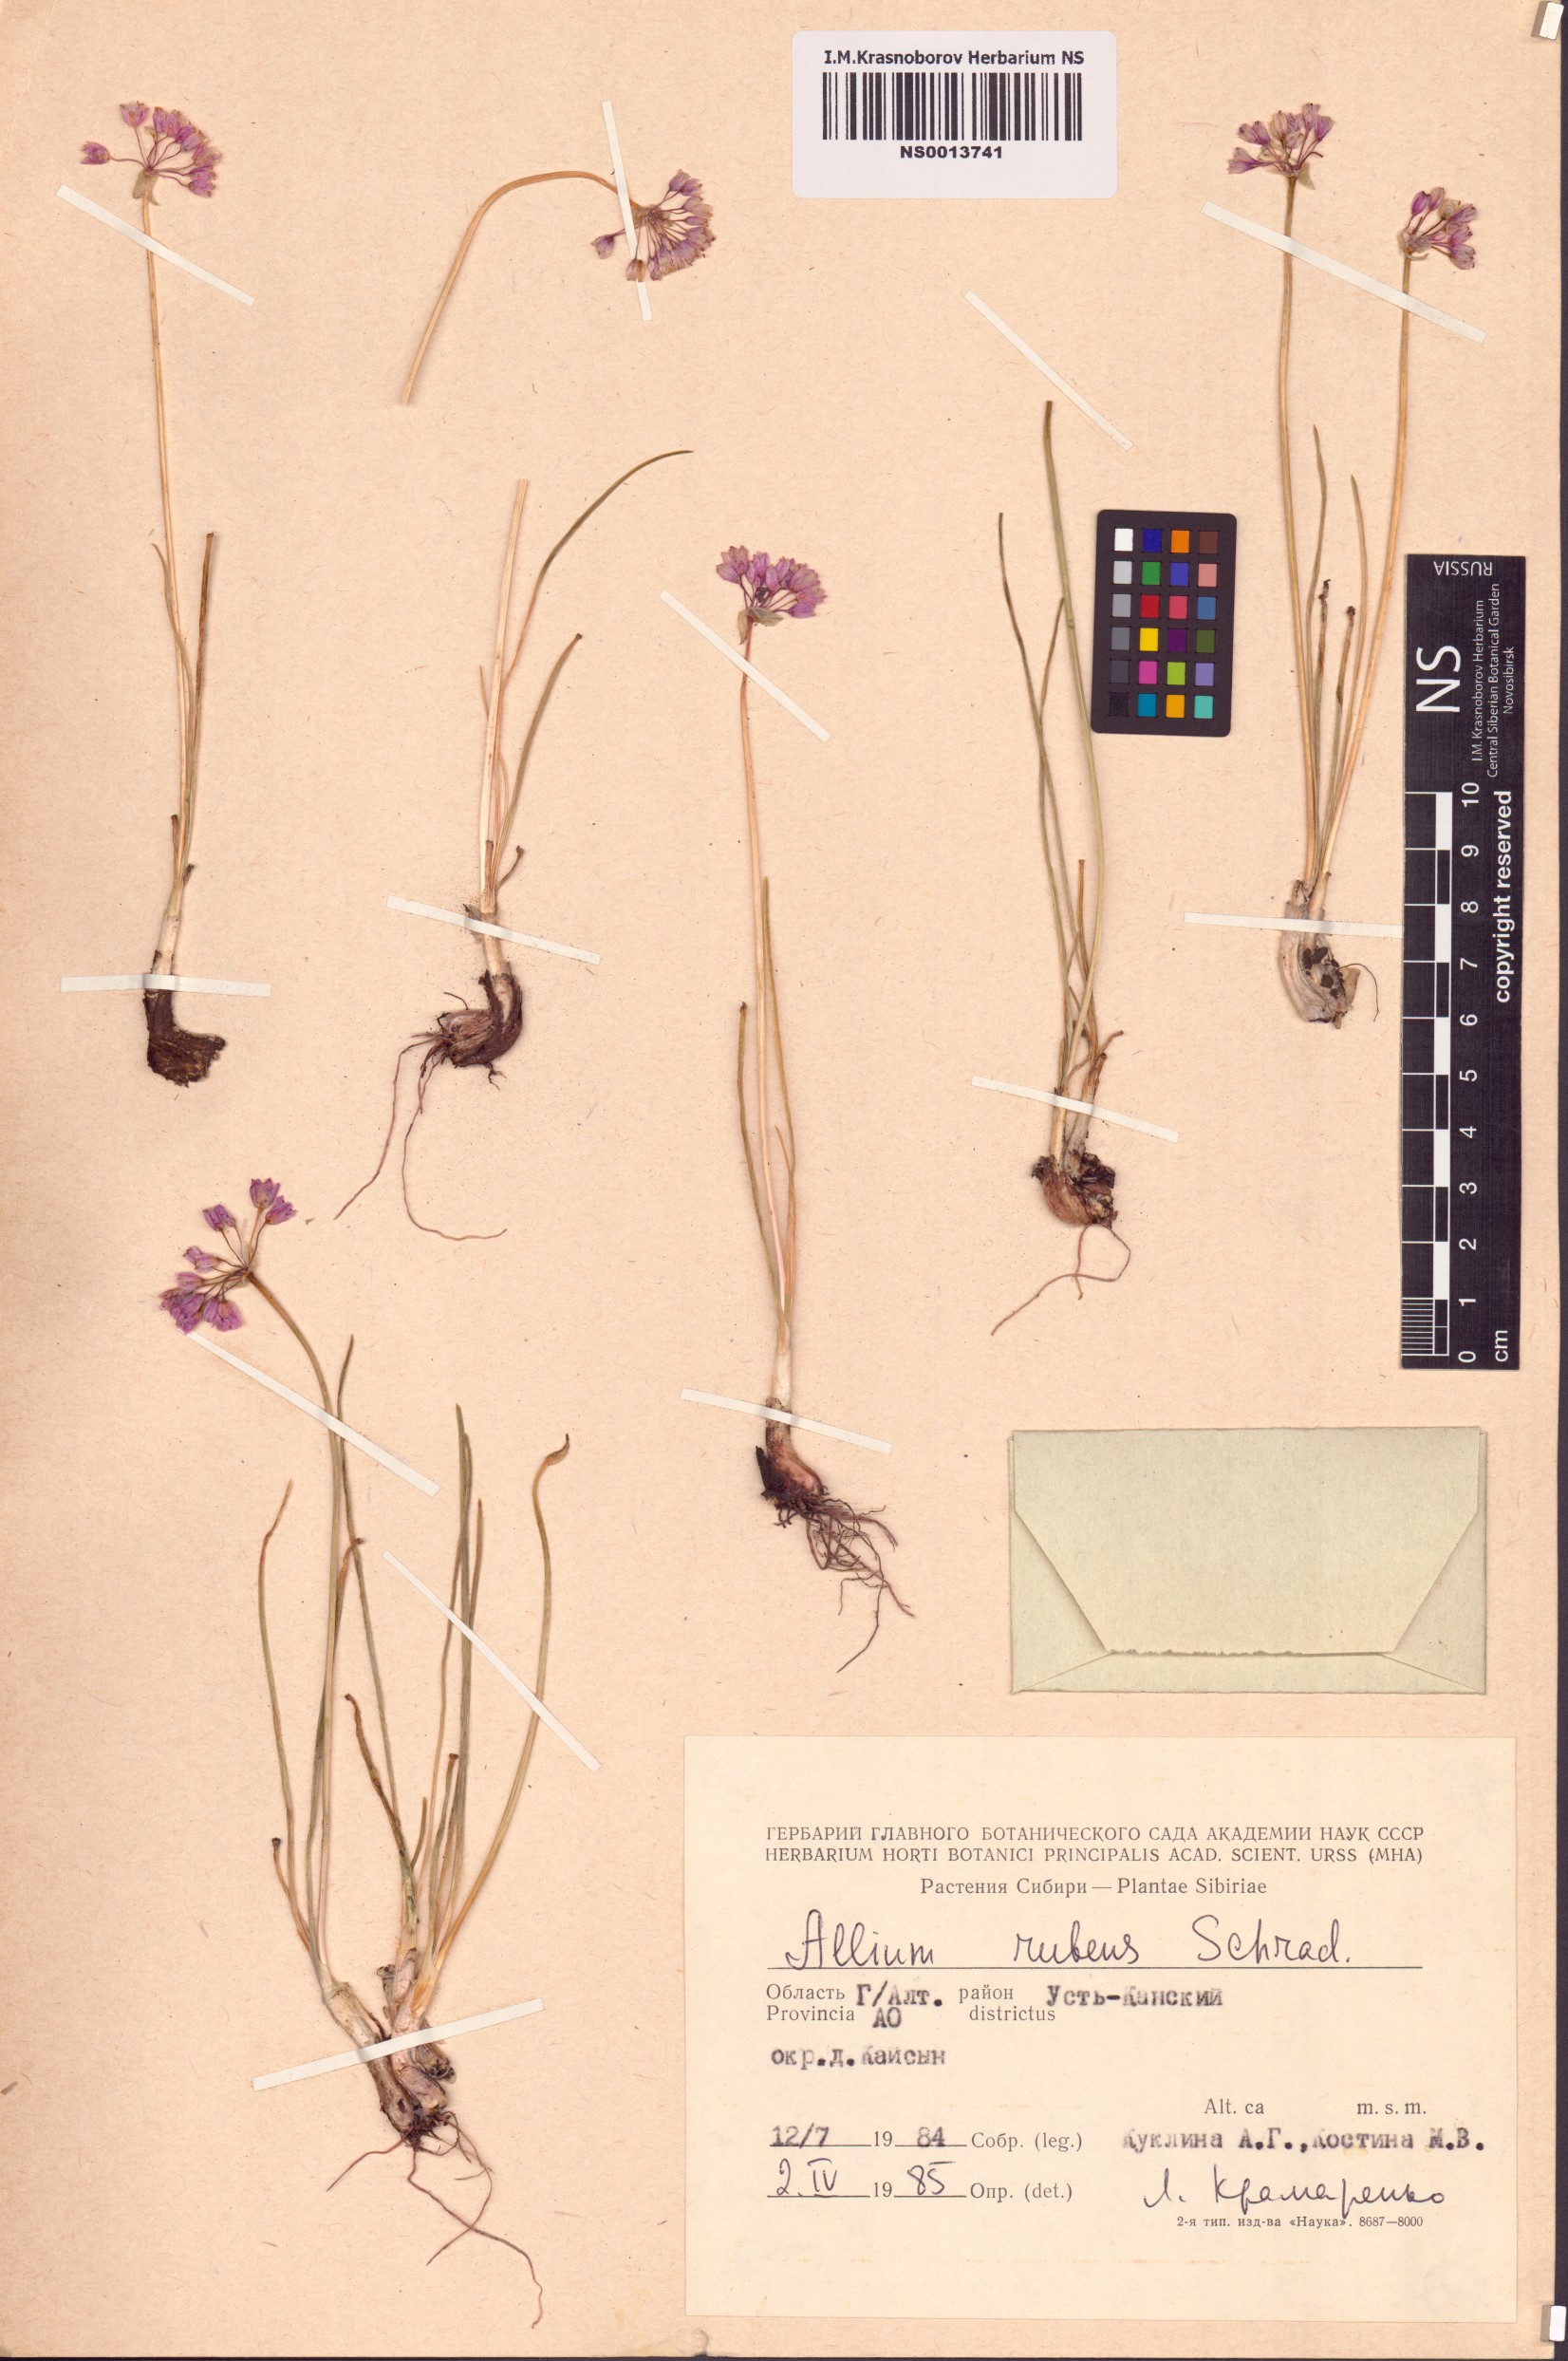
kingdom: Plantae
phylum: Tracheophyta
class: Liliopsida
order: Asparagales
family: Amaryllidaceae
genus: Allium
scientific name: Allium rubens
